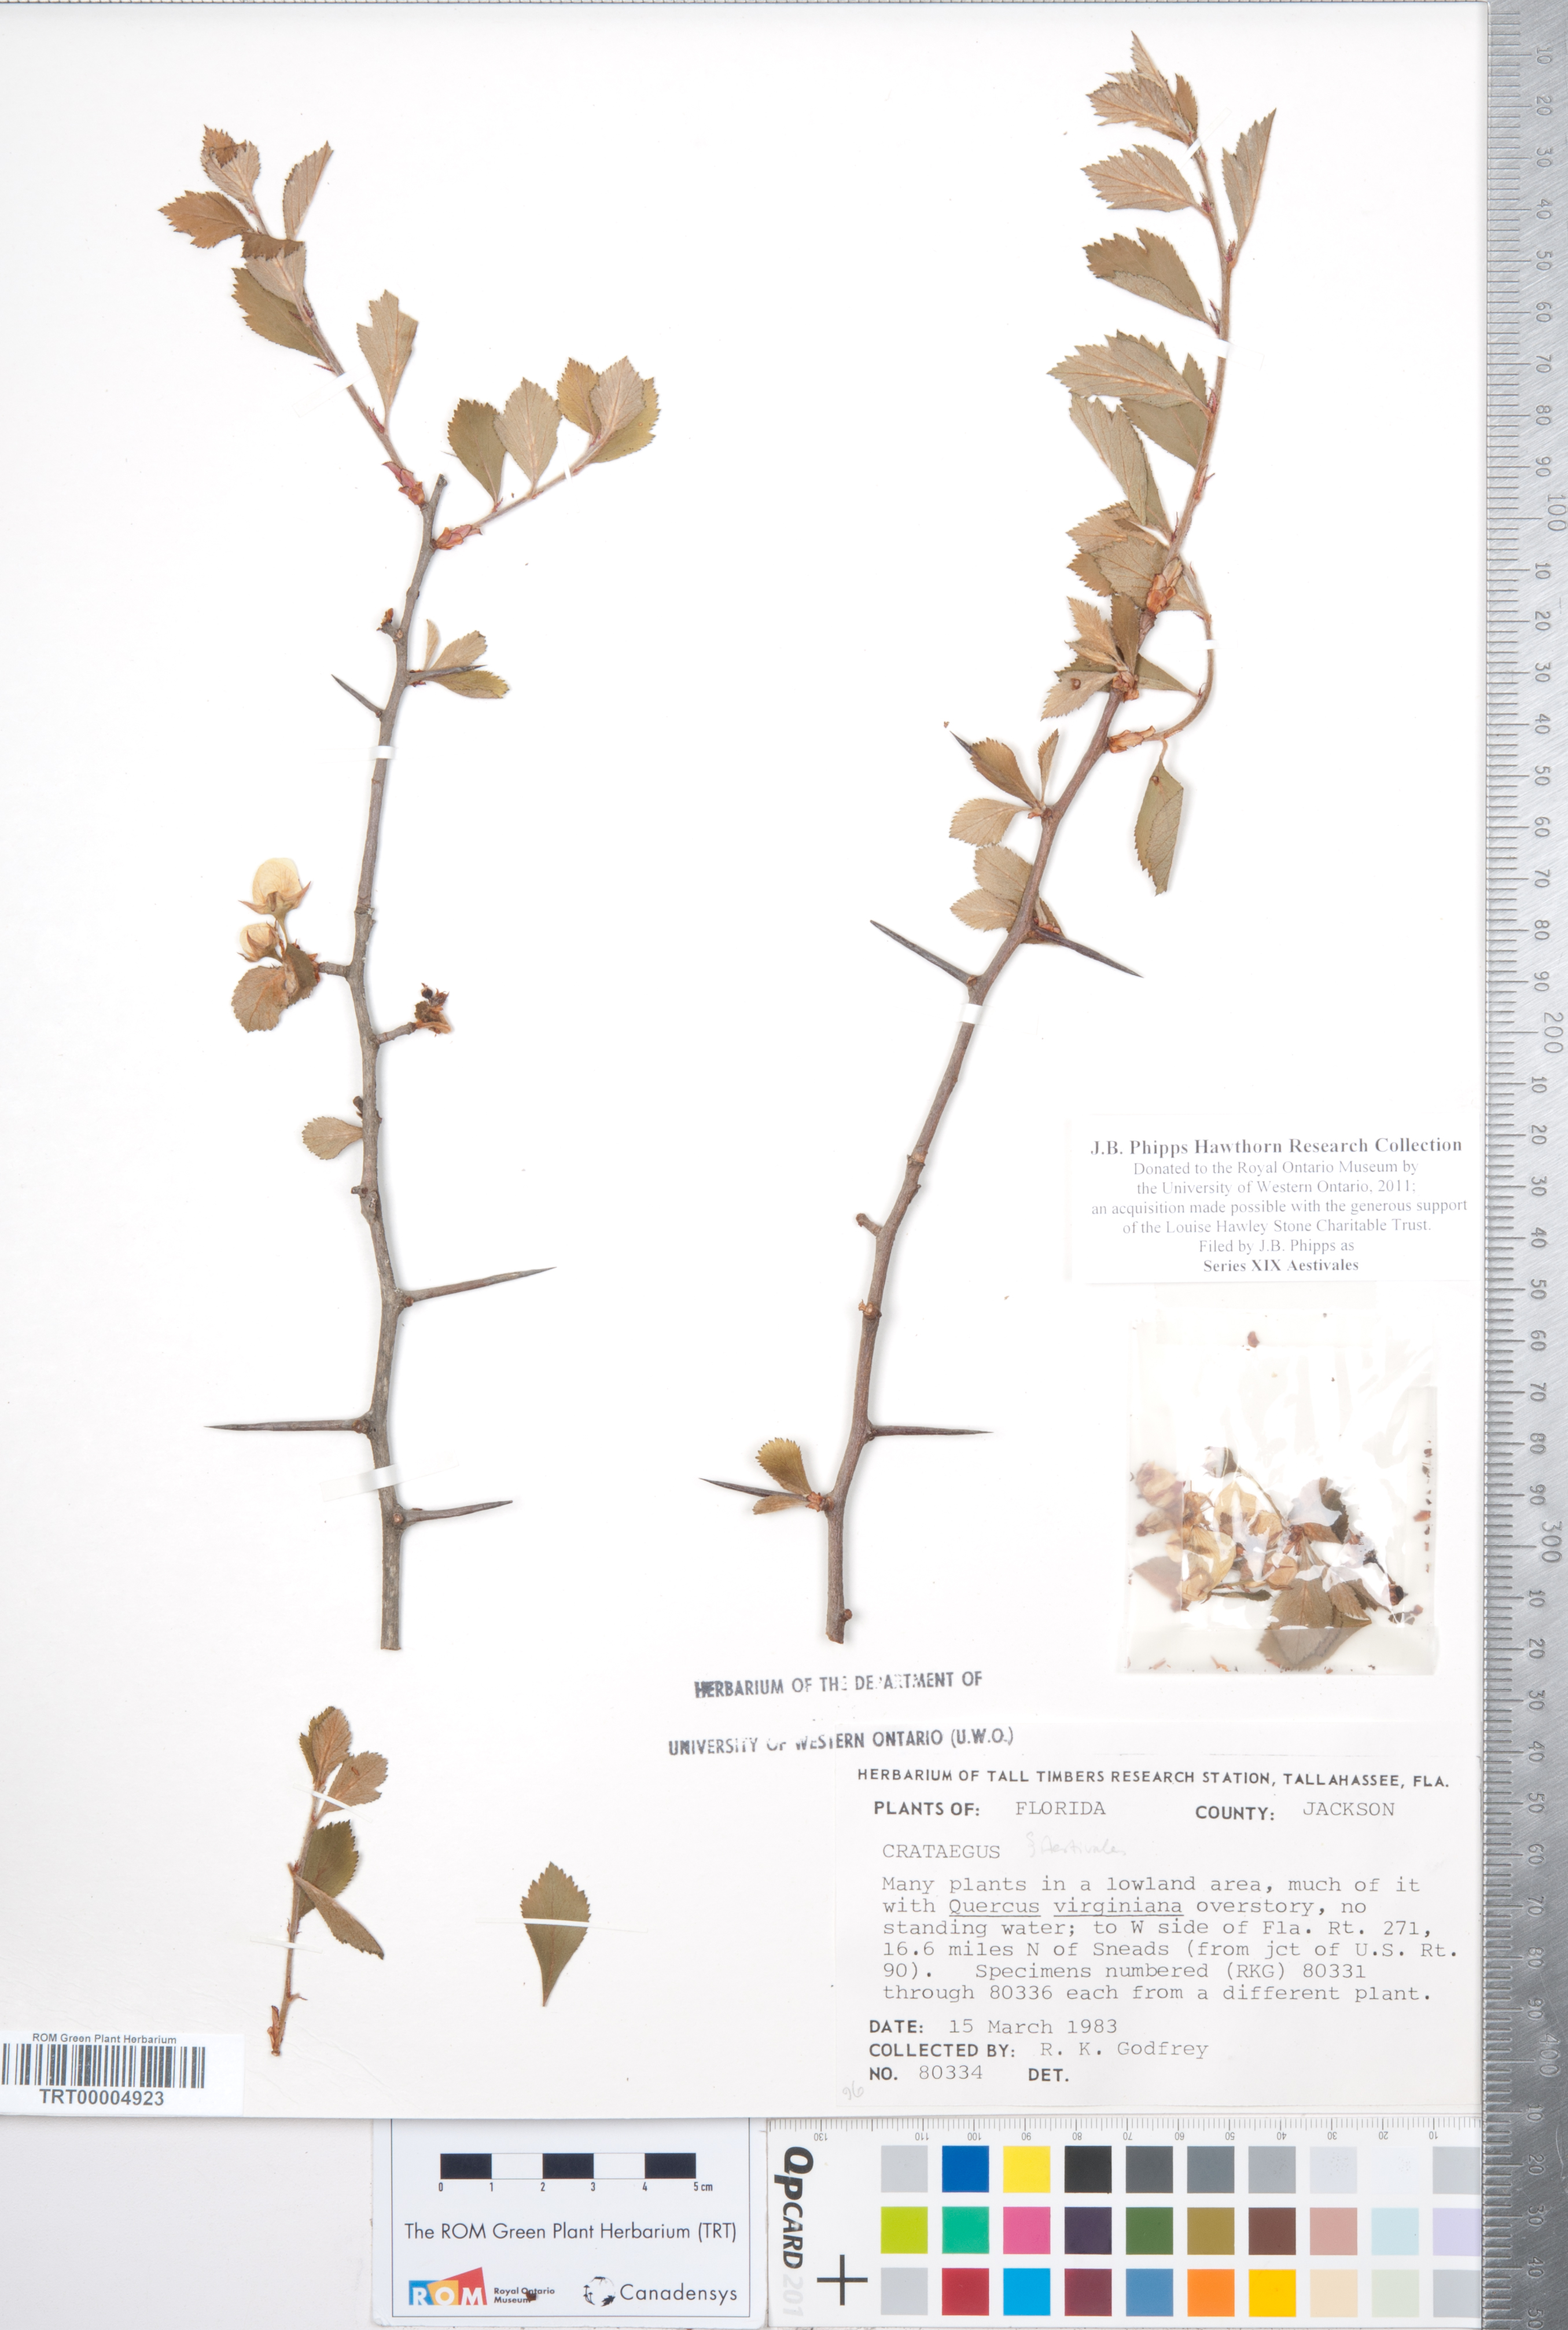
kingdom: Plantae
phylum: Tracheophyta
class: Magnoliopsida
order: Rosales
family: Rosaceae
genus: Crataegus
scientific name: Crataegus
